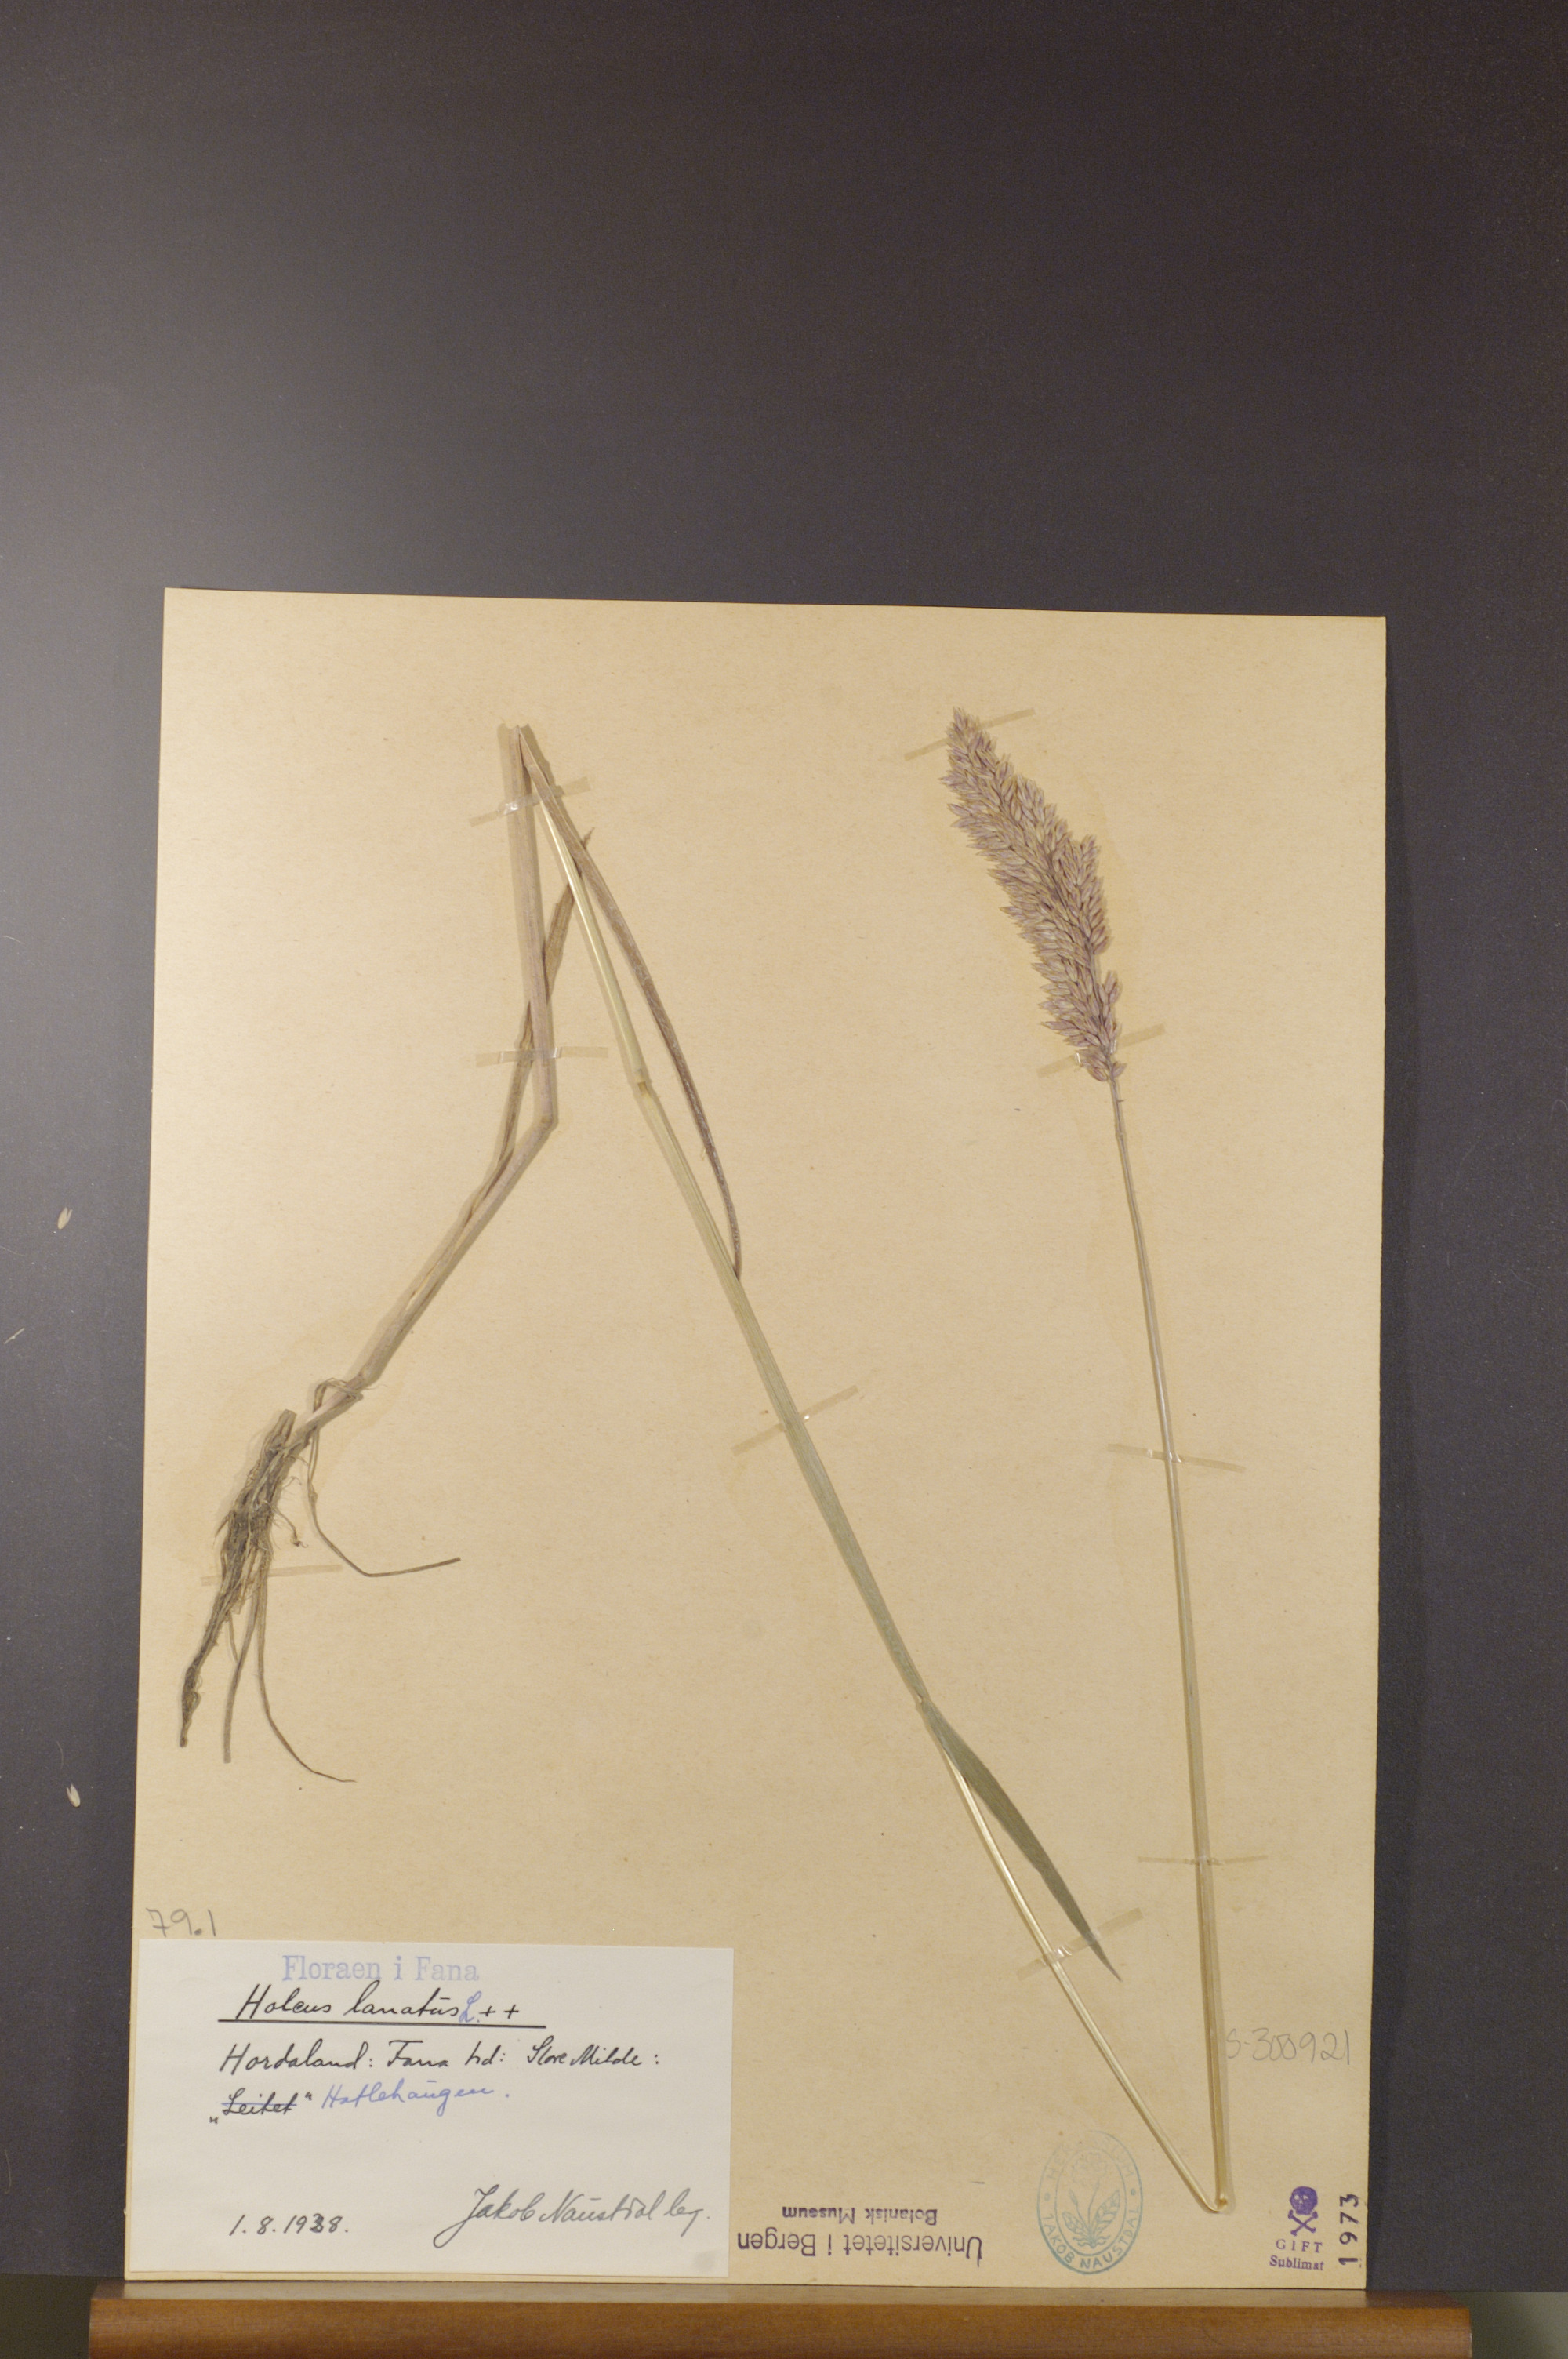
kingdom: Plantae
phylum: Tracheophyta
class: Liliopsida
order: Poales
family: Poaceae
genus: Holcus
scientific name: Holcus lanatus
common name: Yorkshire-fog
